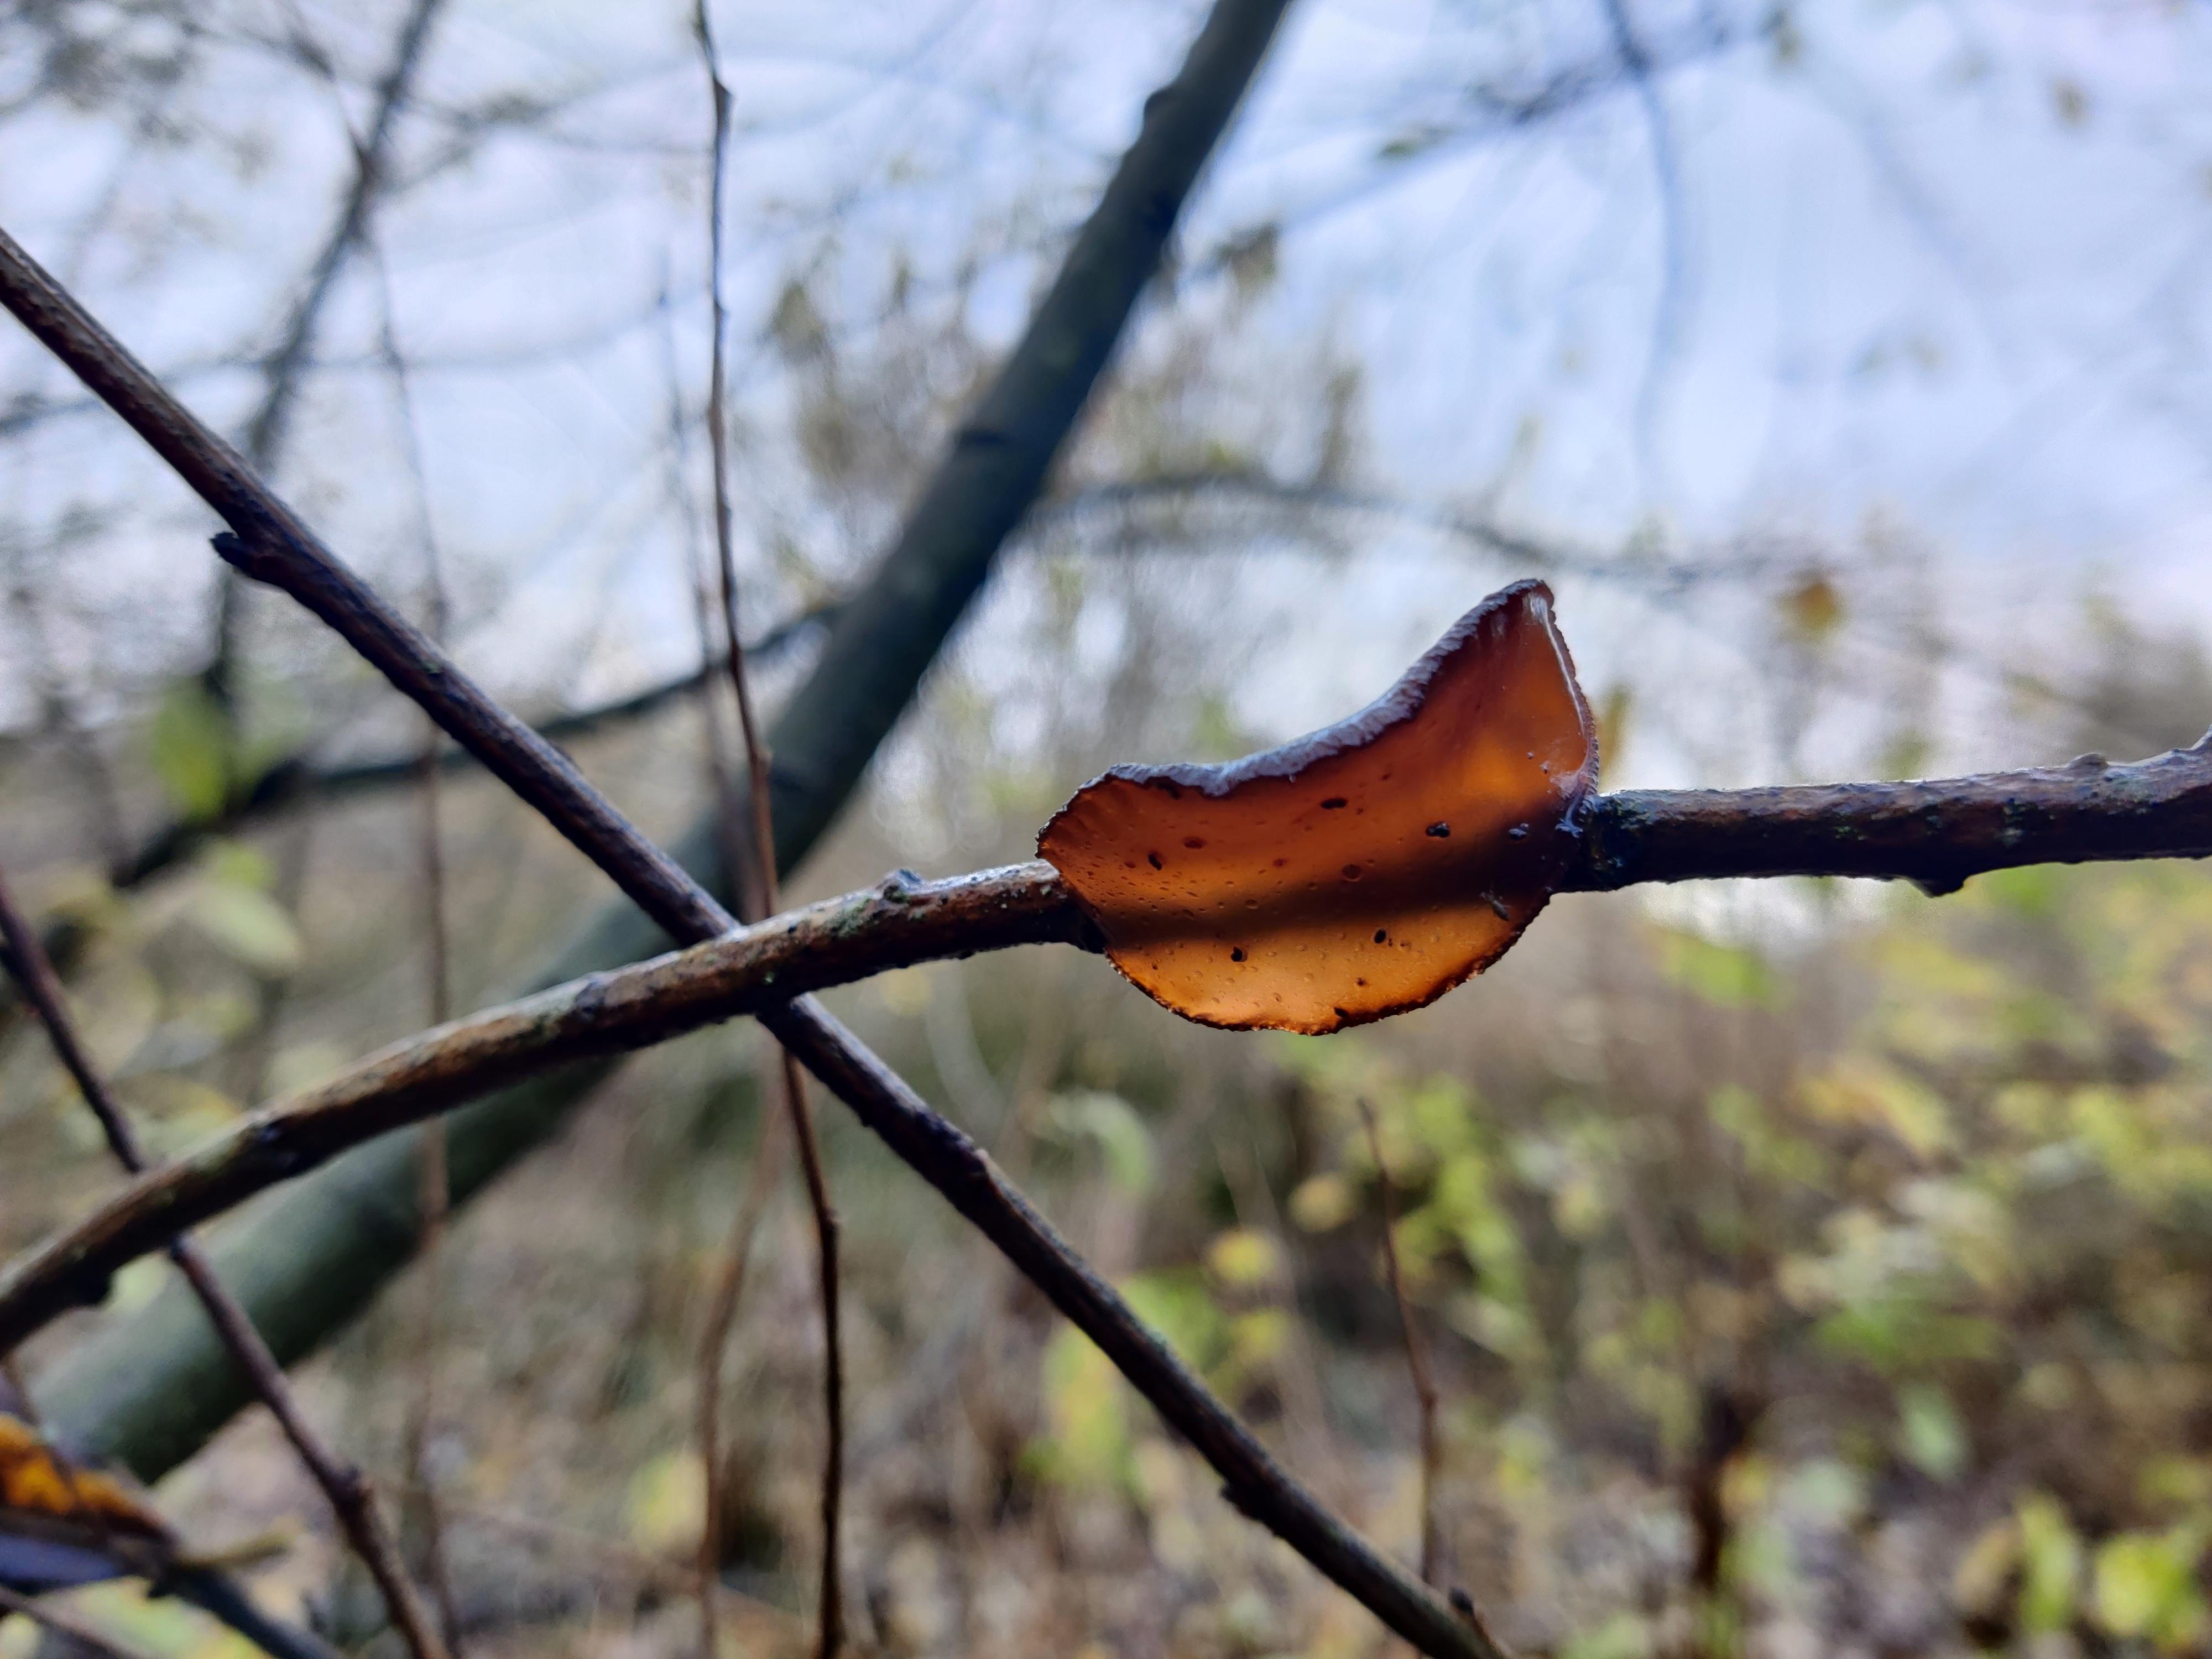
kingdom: Fungi
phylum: Basidiomycota
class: Agaricomycetes
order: Auriculariales
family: Auriculariaceae
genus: Exidia
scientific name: Exidia recisa
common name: pile-bævretop
